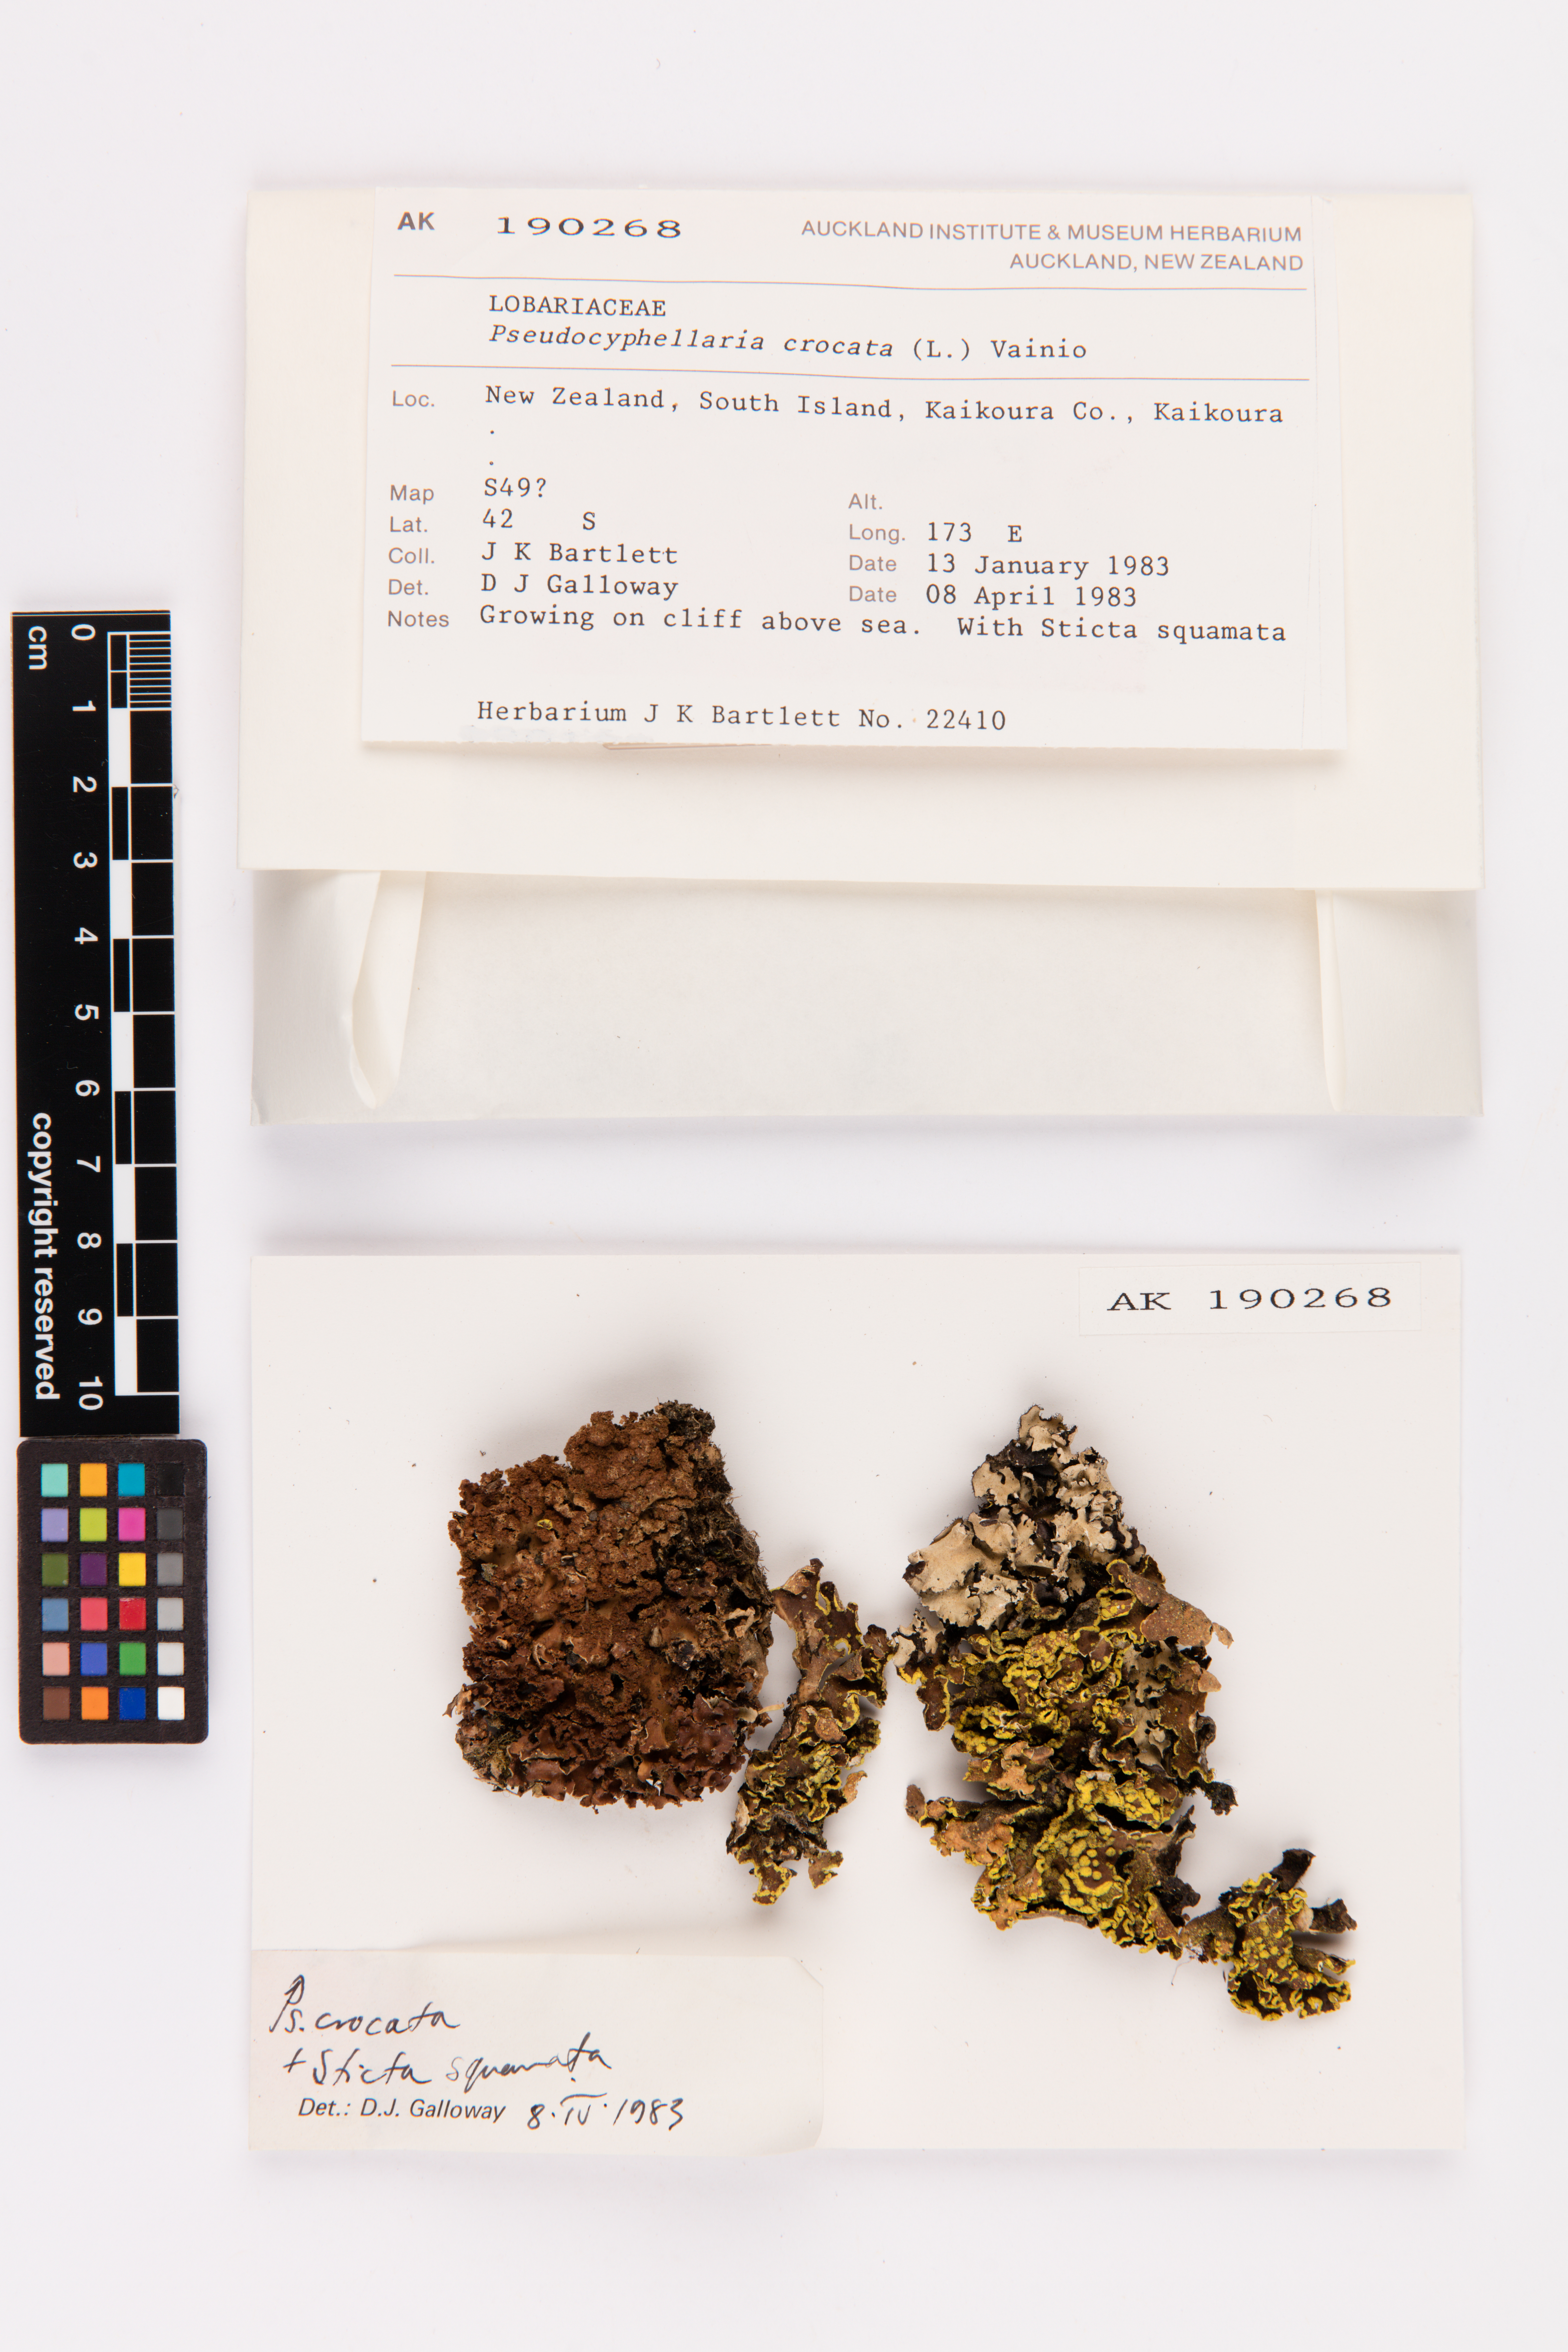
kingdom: Fungi
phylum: Ascomycota
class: Lecanoromycetes
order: Peltigerales
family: Lobariaceae
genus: Pseudocyphellaria
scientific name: Pseudocyphellaria crocata
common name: Golden specklebelly
